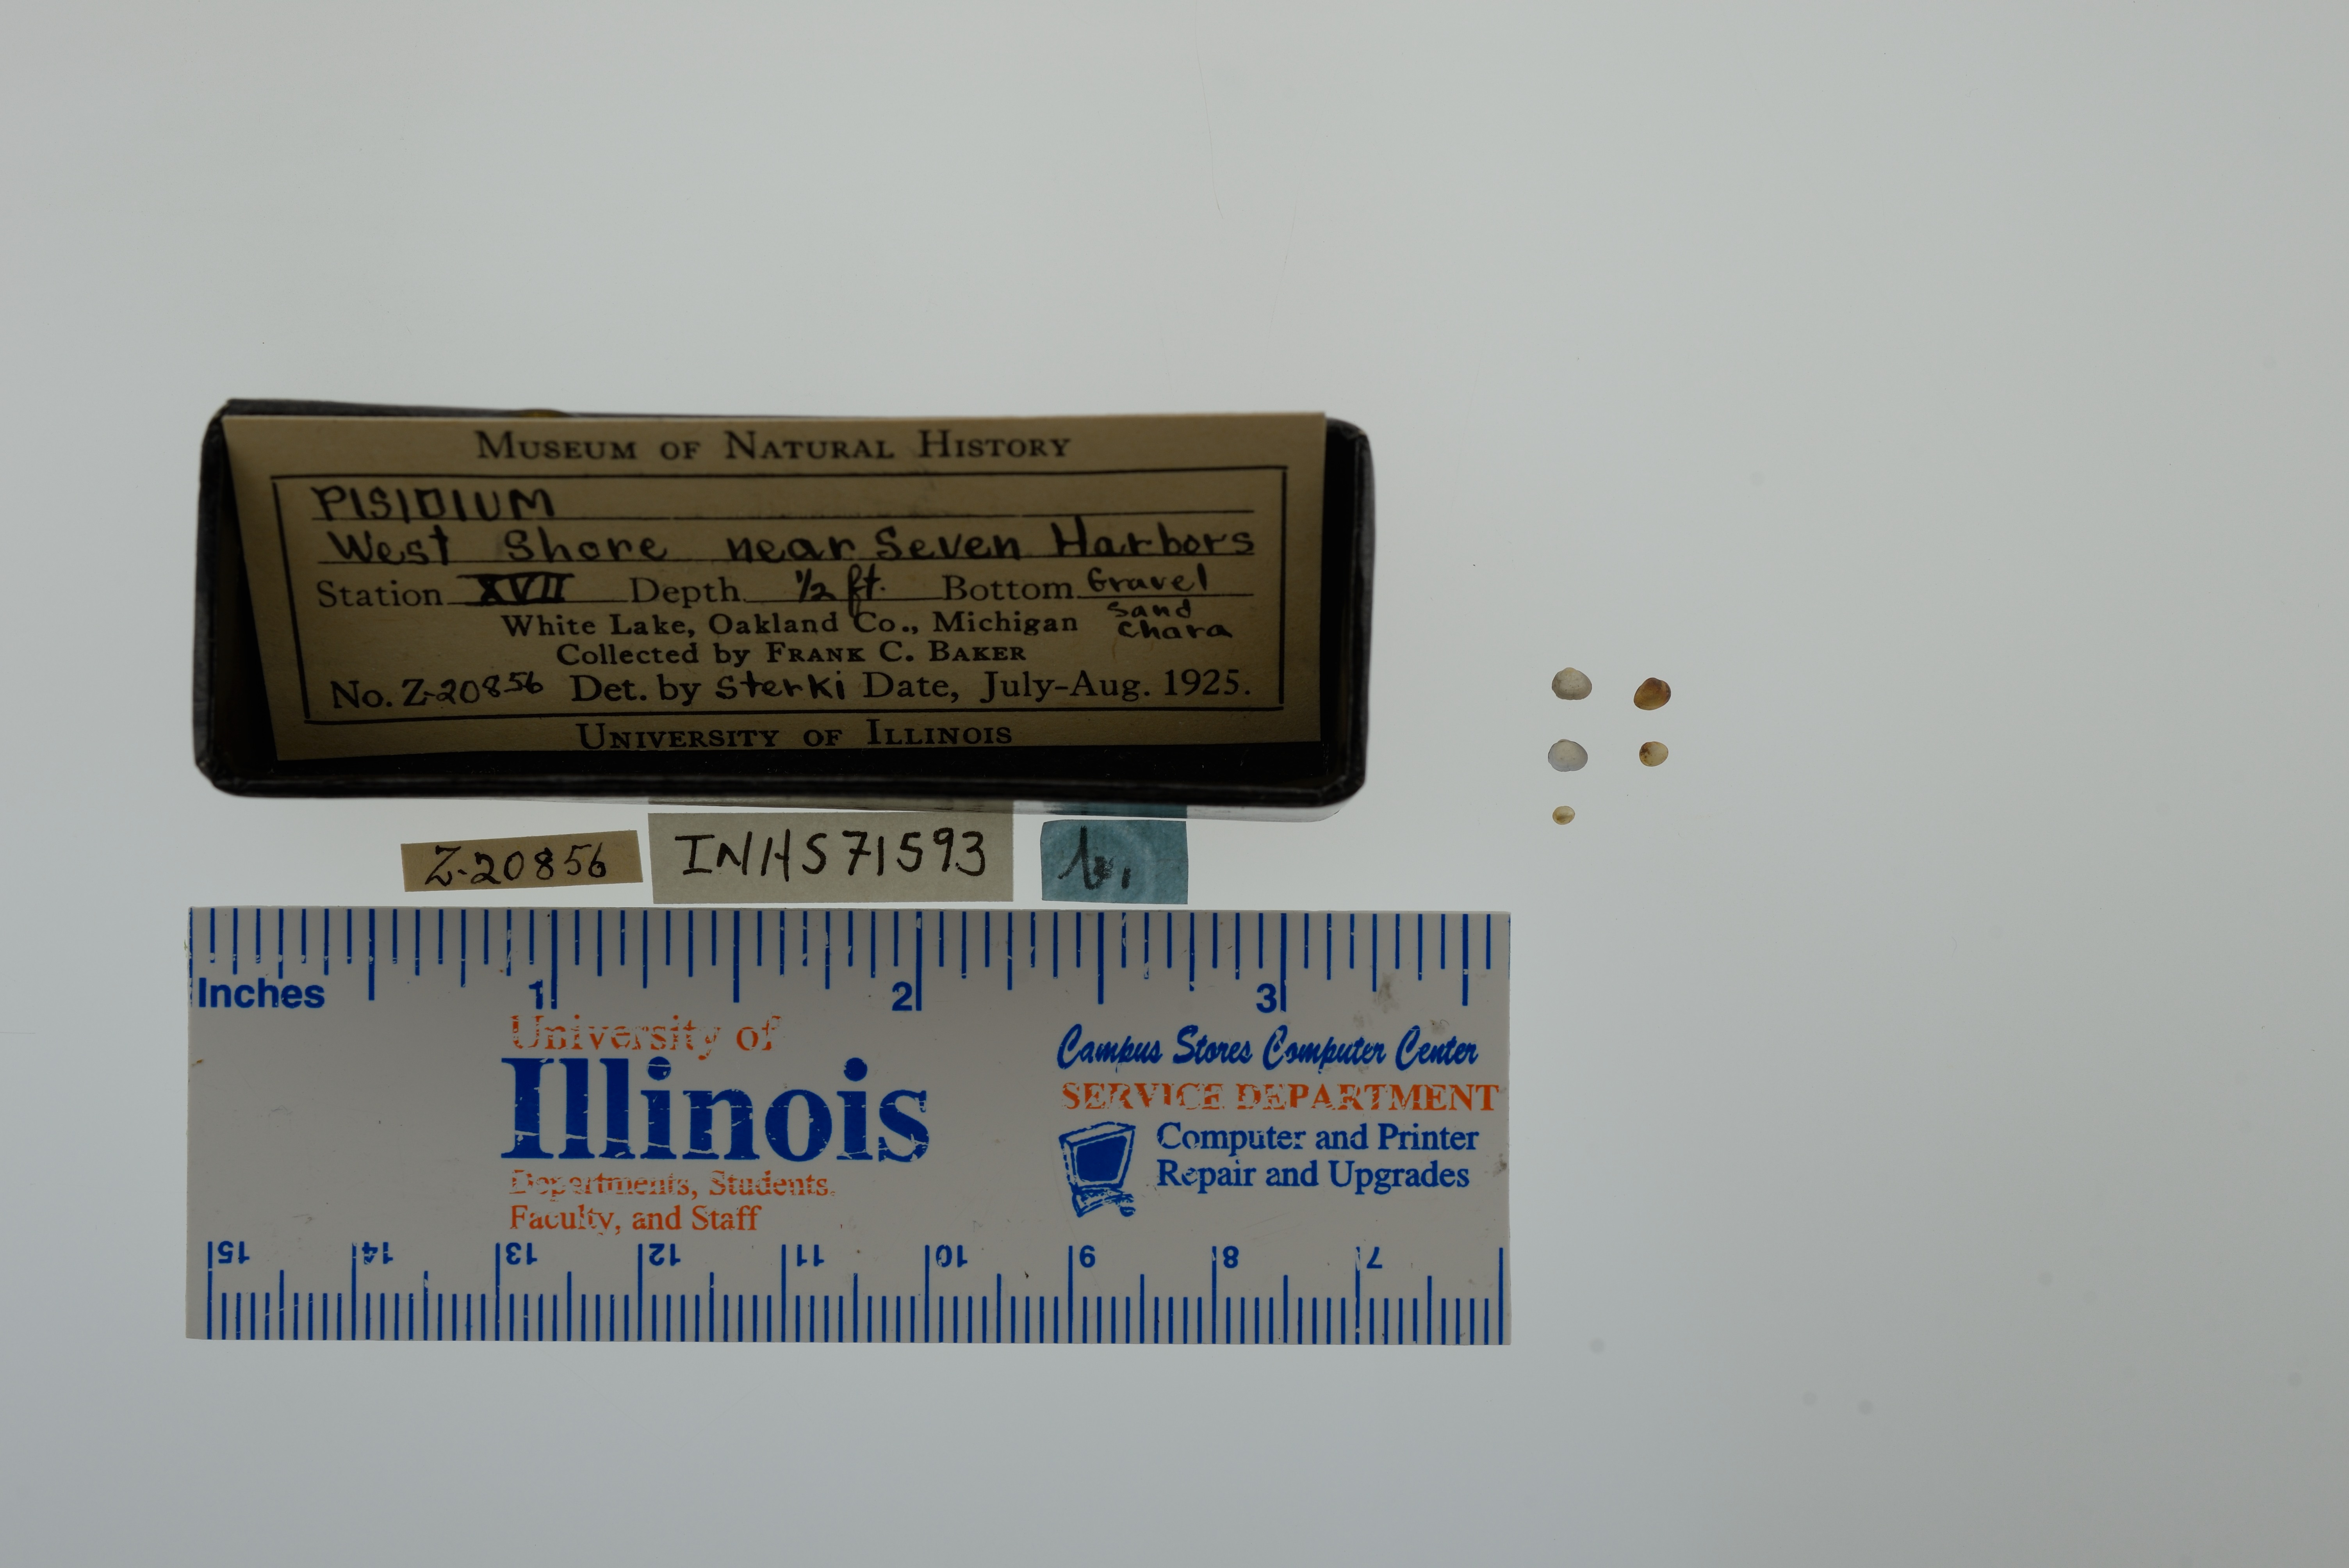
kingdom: Animalia
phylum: Mollusca
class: Bivalvia
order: Sphaeriida
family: Sphaeriidae
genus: Pisidium
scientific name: Pisidium
